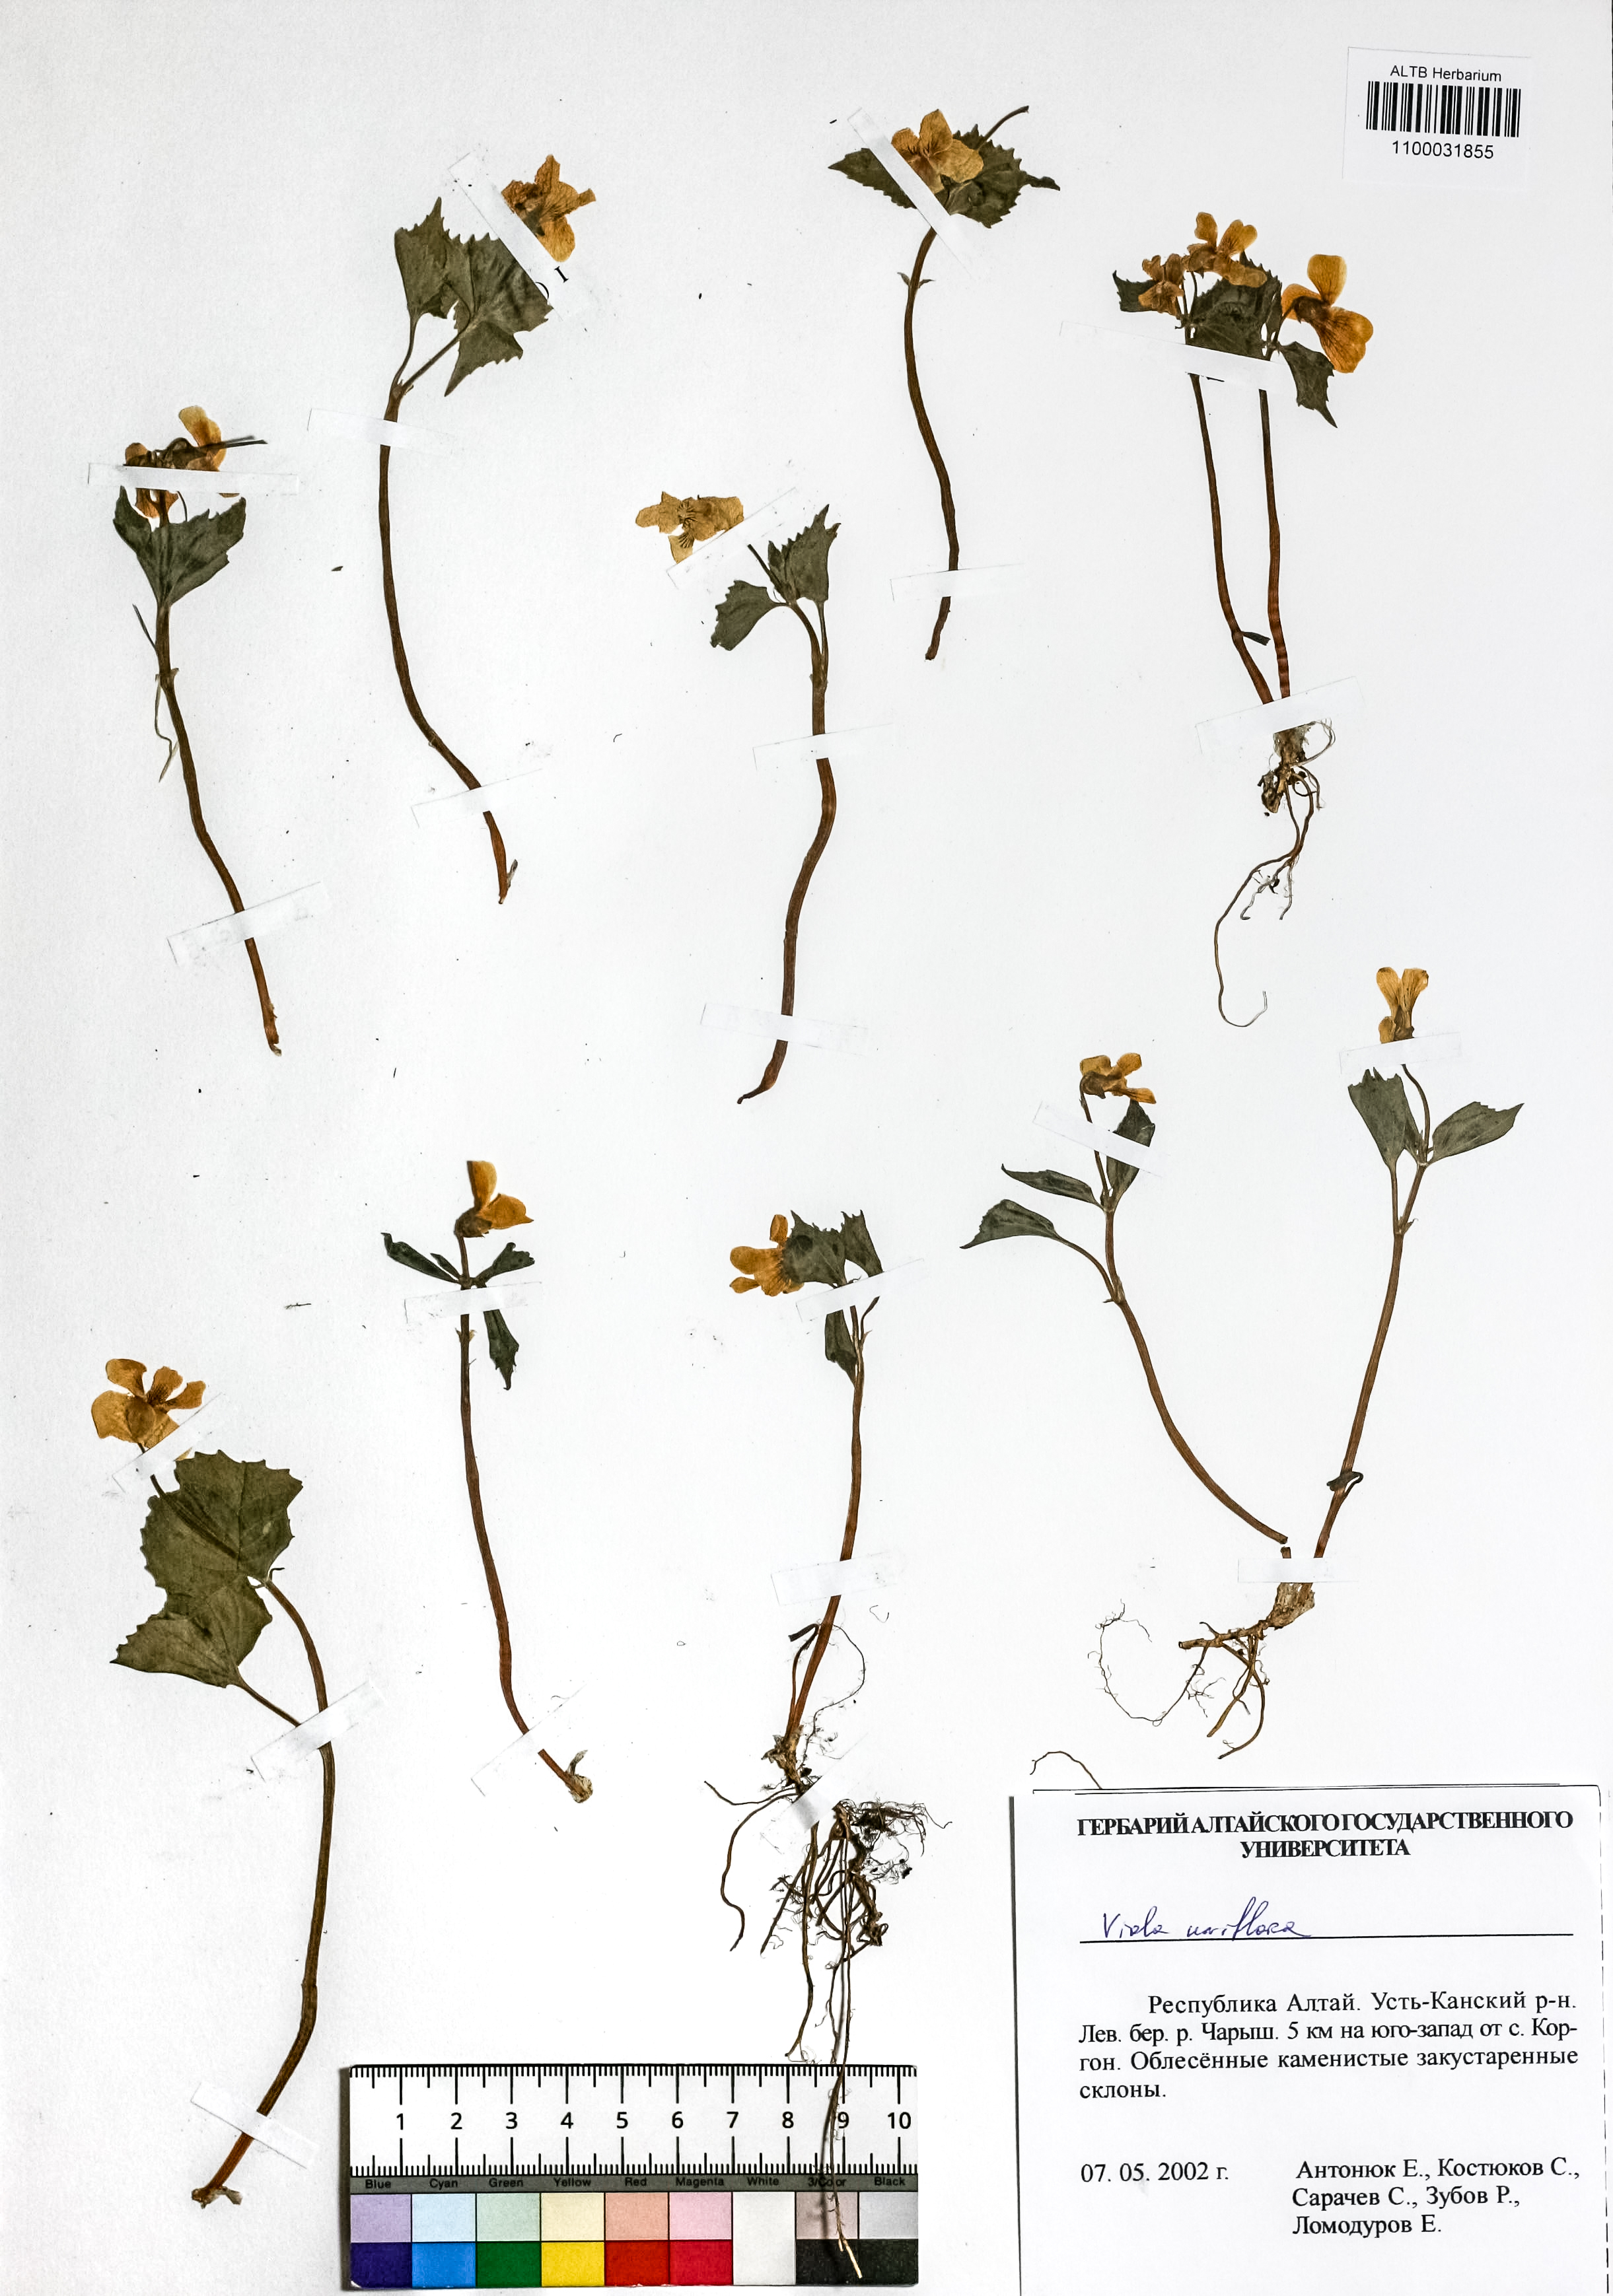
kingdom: Plantae
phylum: Tracheophyta
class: Magnoliopsida
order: Malpighiales
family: Violaceae
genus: Viola
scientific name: Viola uniflora
